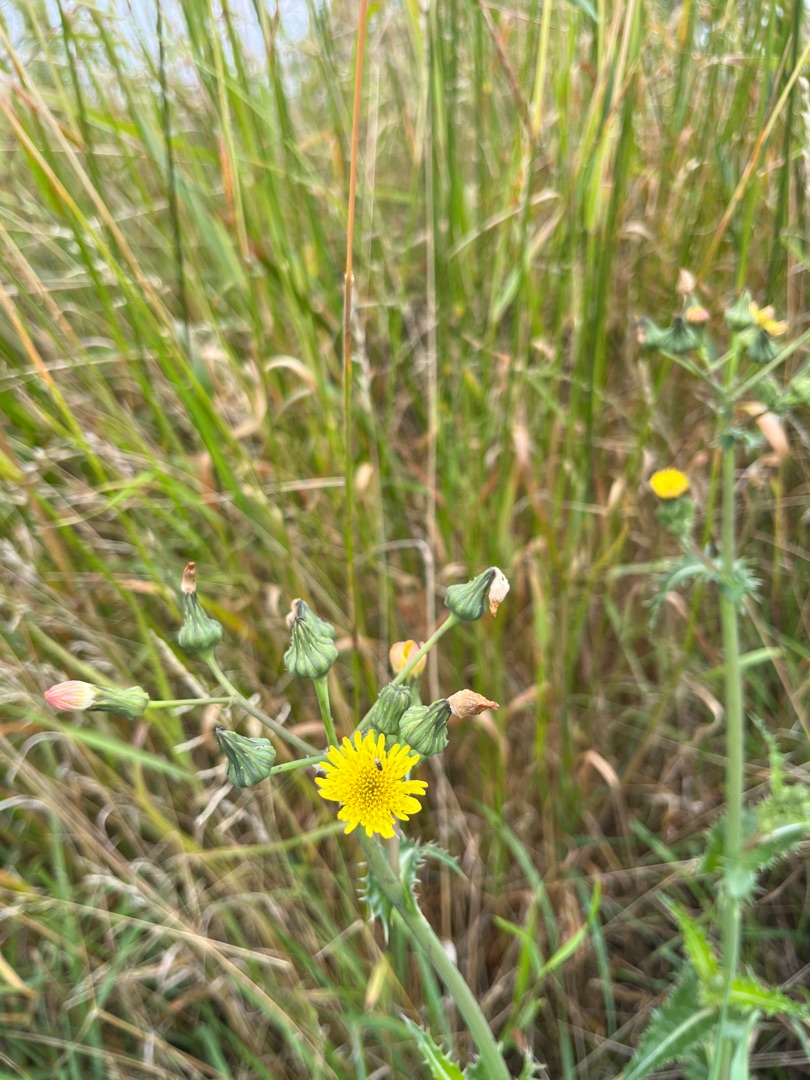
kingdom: Plantae
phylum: Tracheophyta
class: Magnoliopsida
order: Asterales
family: Asteraceae
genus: Sonchus
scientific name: Sonchus asper
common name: Ru svinemælk
